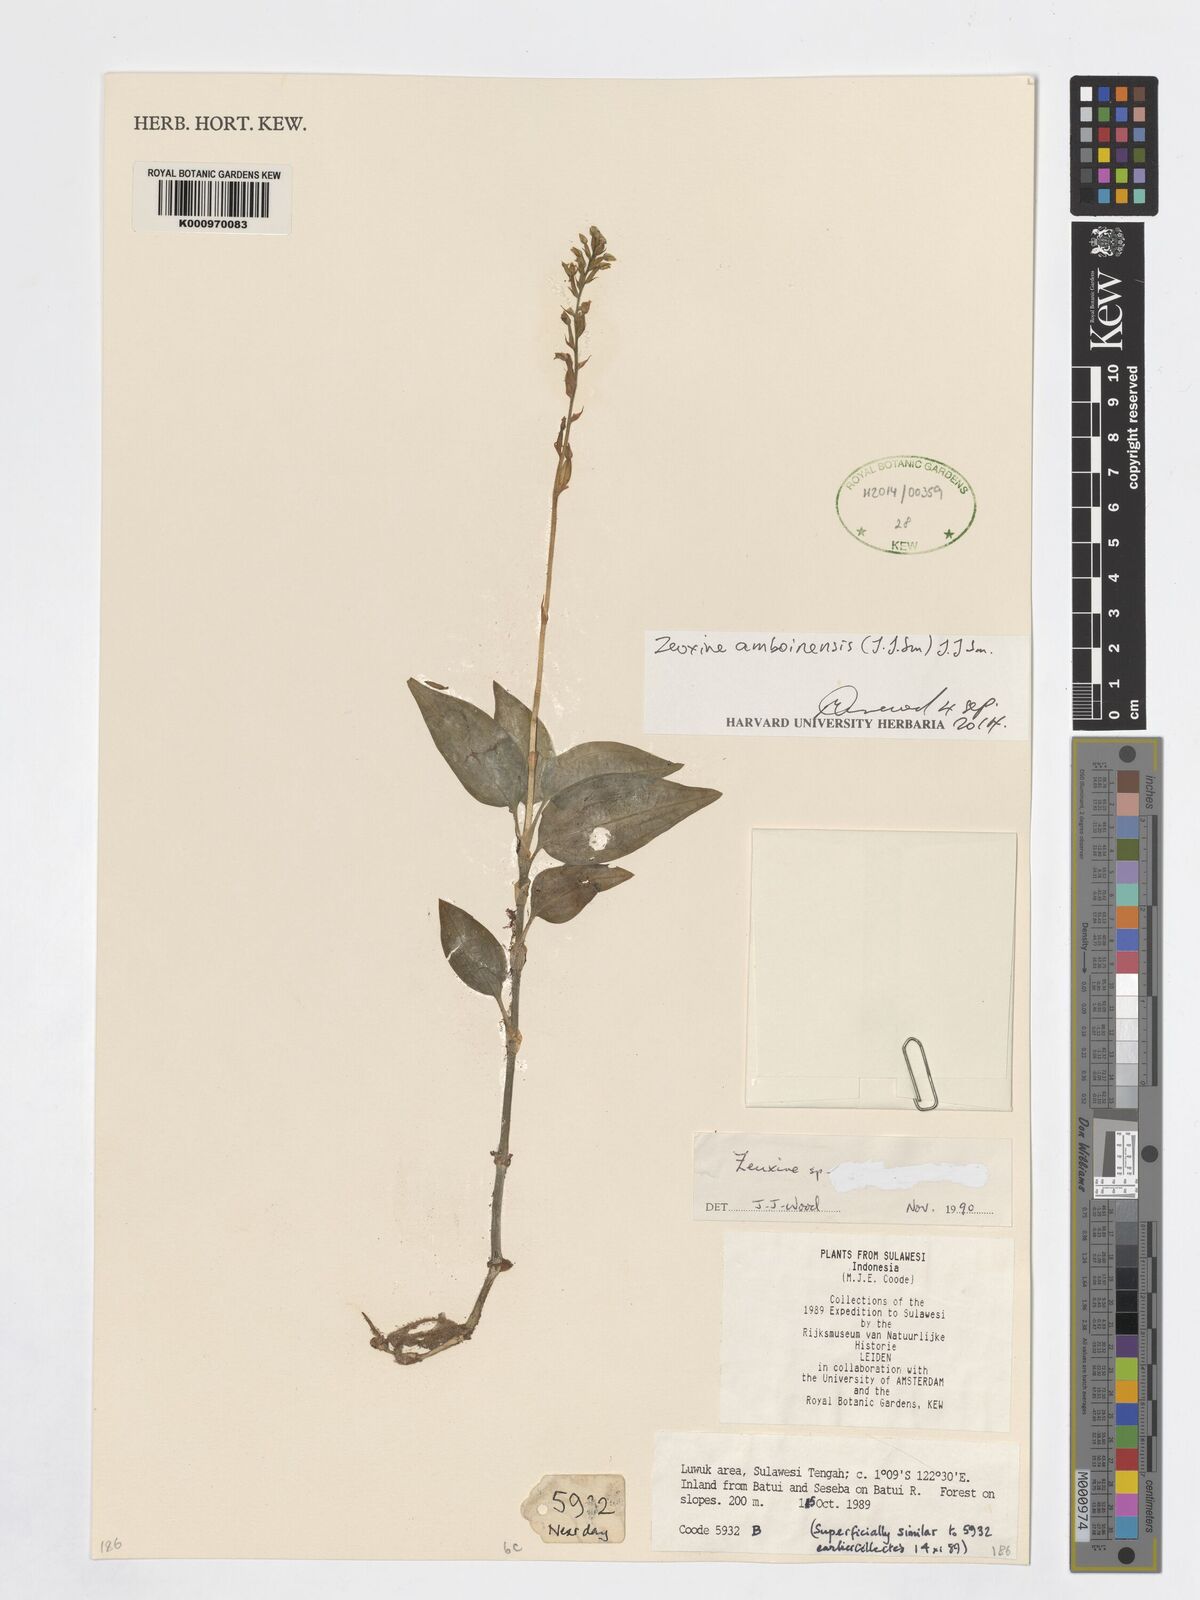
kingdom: Plantae
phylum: Tracheophyta
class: Liliopsida
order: Asparagales
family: Orchidaceae
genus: Zeuxine
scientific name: Zeuxine amboinensis
